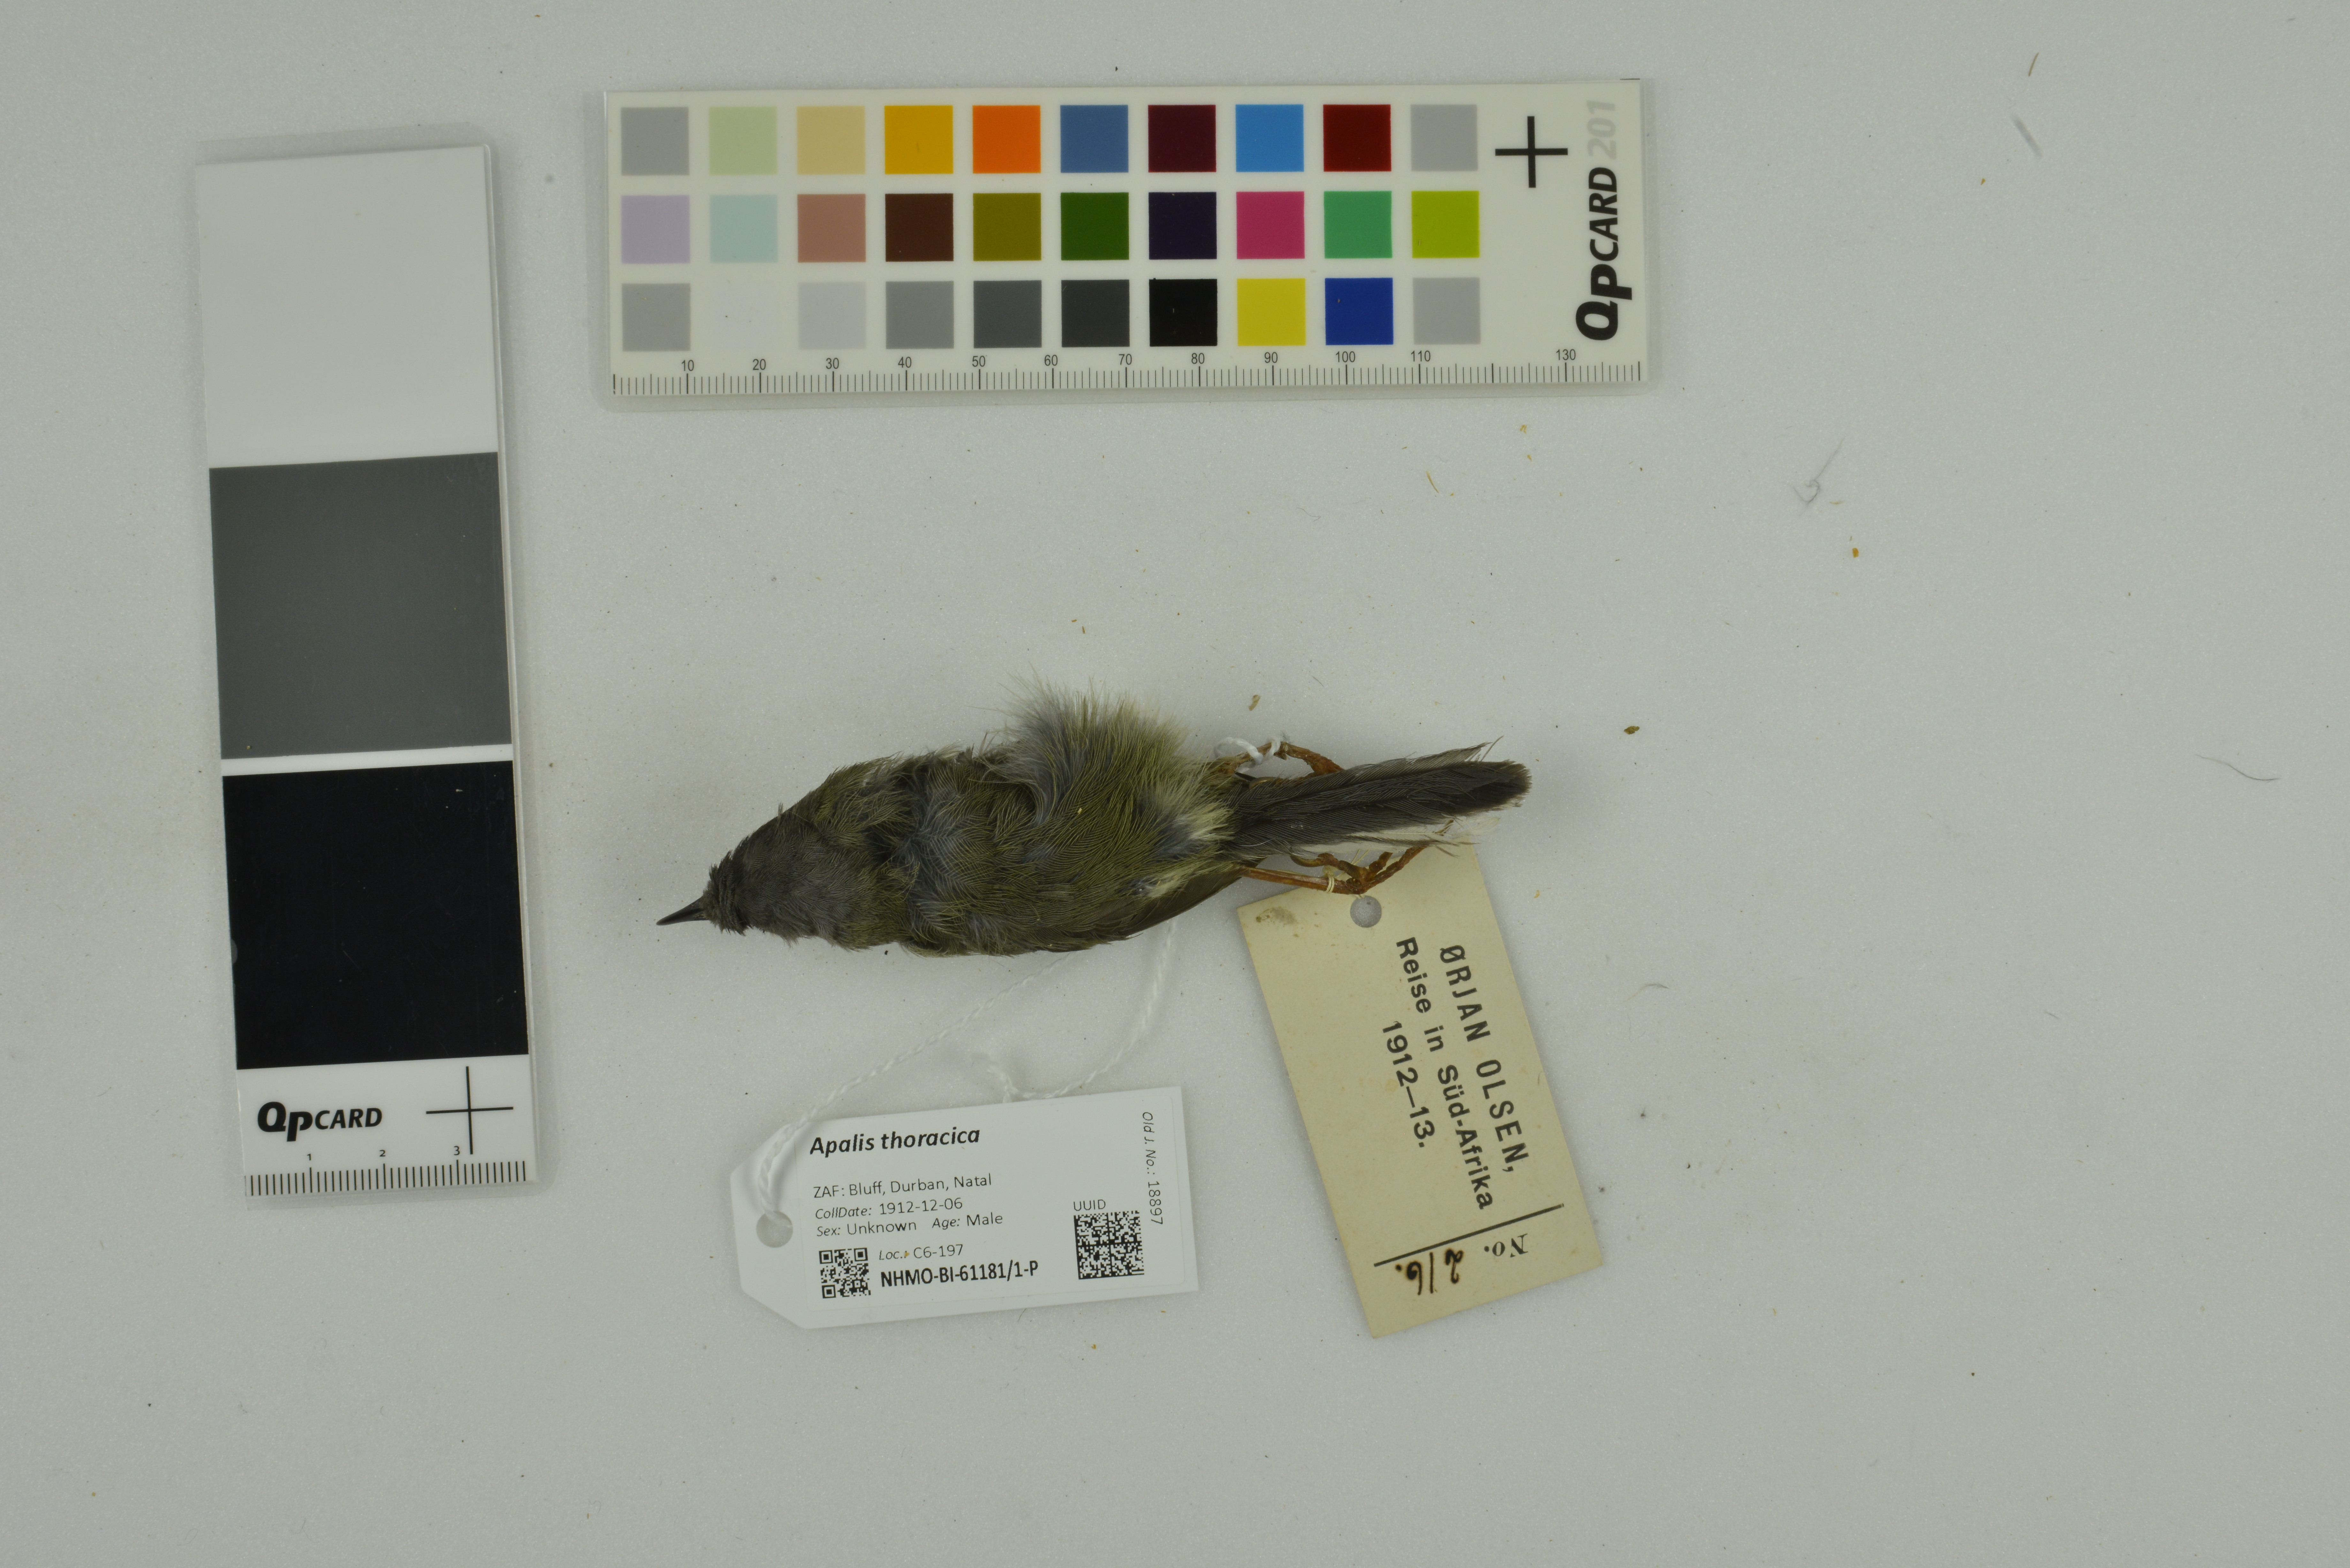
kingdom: Animalia
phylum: Chordata
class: Aves
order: Passeriformes
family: Cisticolidae
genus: Apalis
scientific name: Apalis thoracica
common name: Bar-throated apalis
